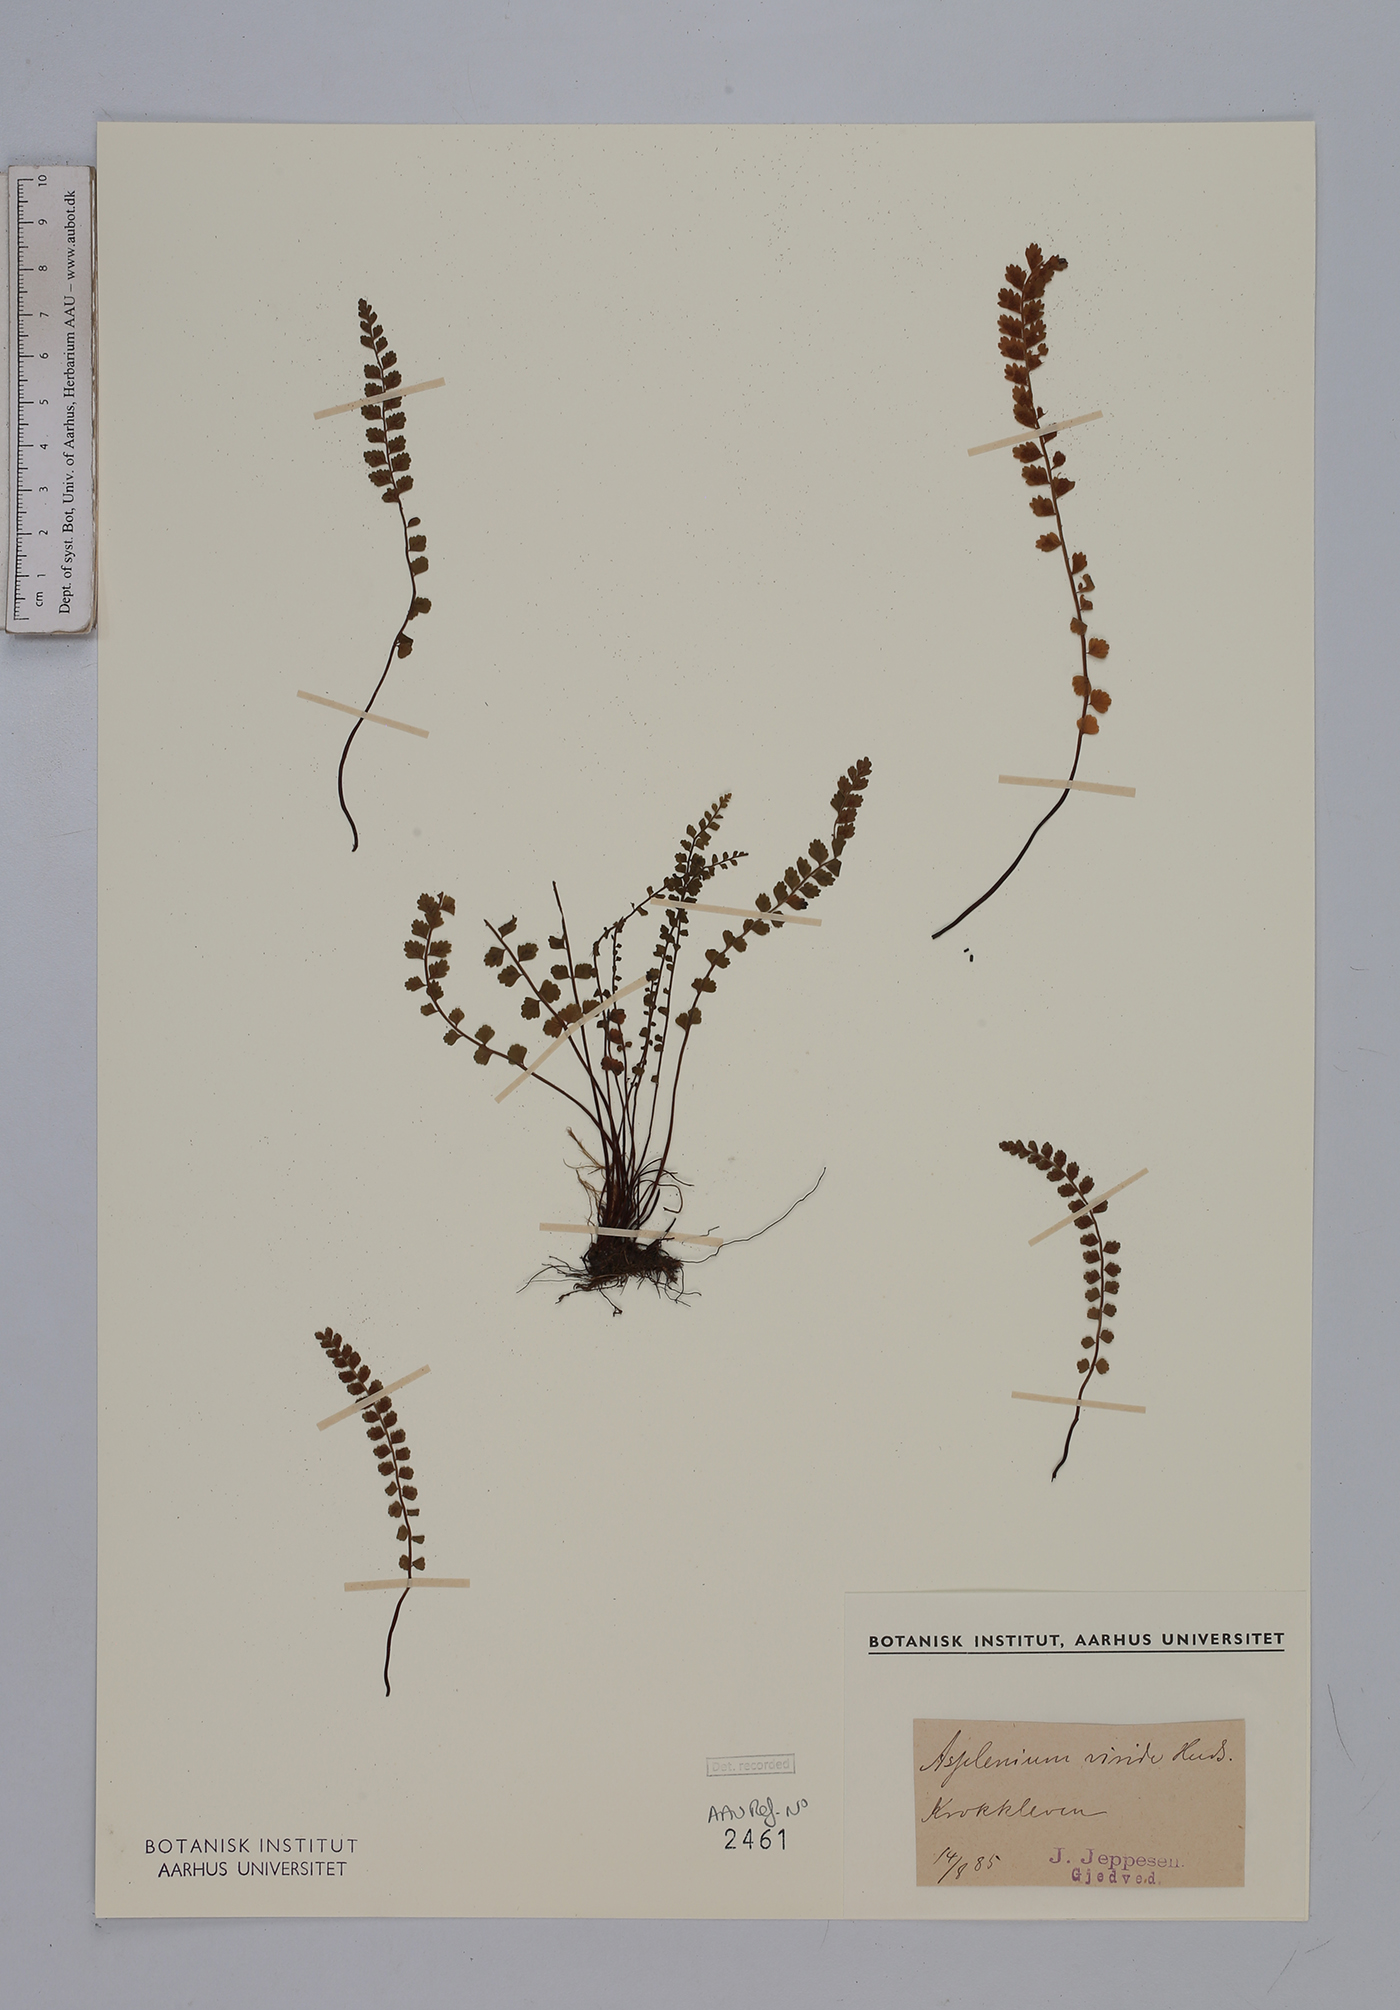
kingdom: Plantae
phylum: Tracheophyta
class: Polypodiopsida
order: Polypodiales
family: Aspleniaceae
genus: Asplenium
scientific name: Asplenium viride
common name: Green spleenwort
